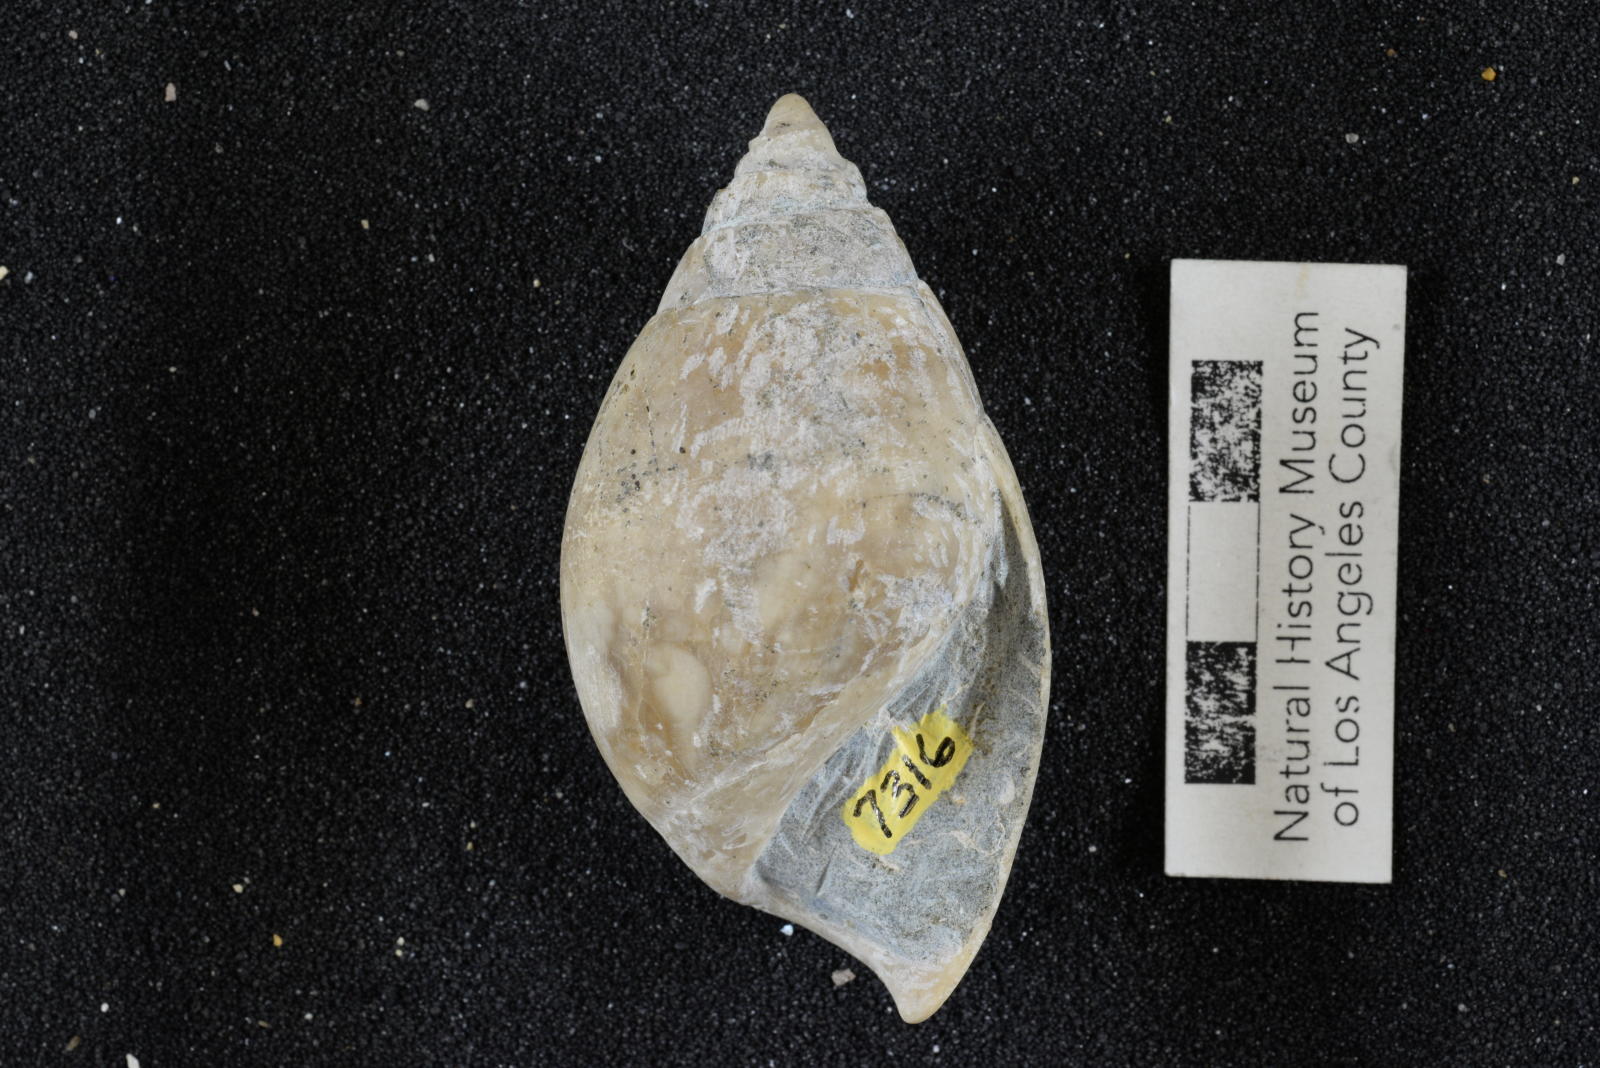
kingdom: Animalia
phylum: Mollusca
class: Gastropoda
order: Cephalaspidea
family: Acteonidae
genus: Tornatellaea
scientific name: Tornatellaea
